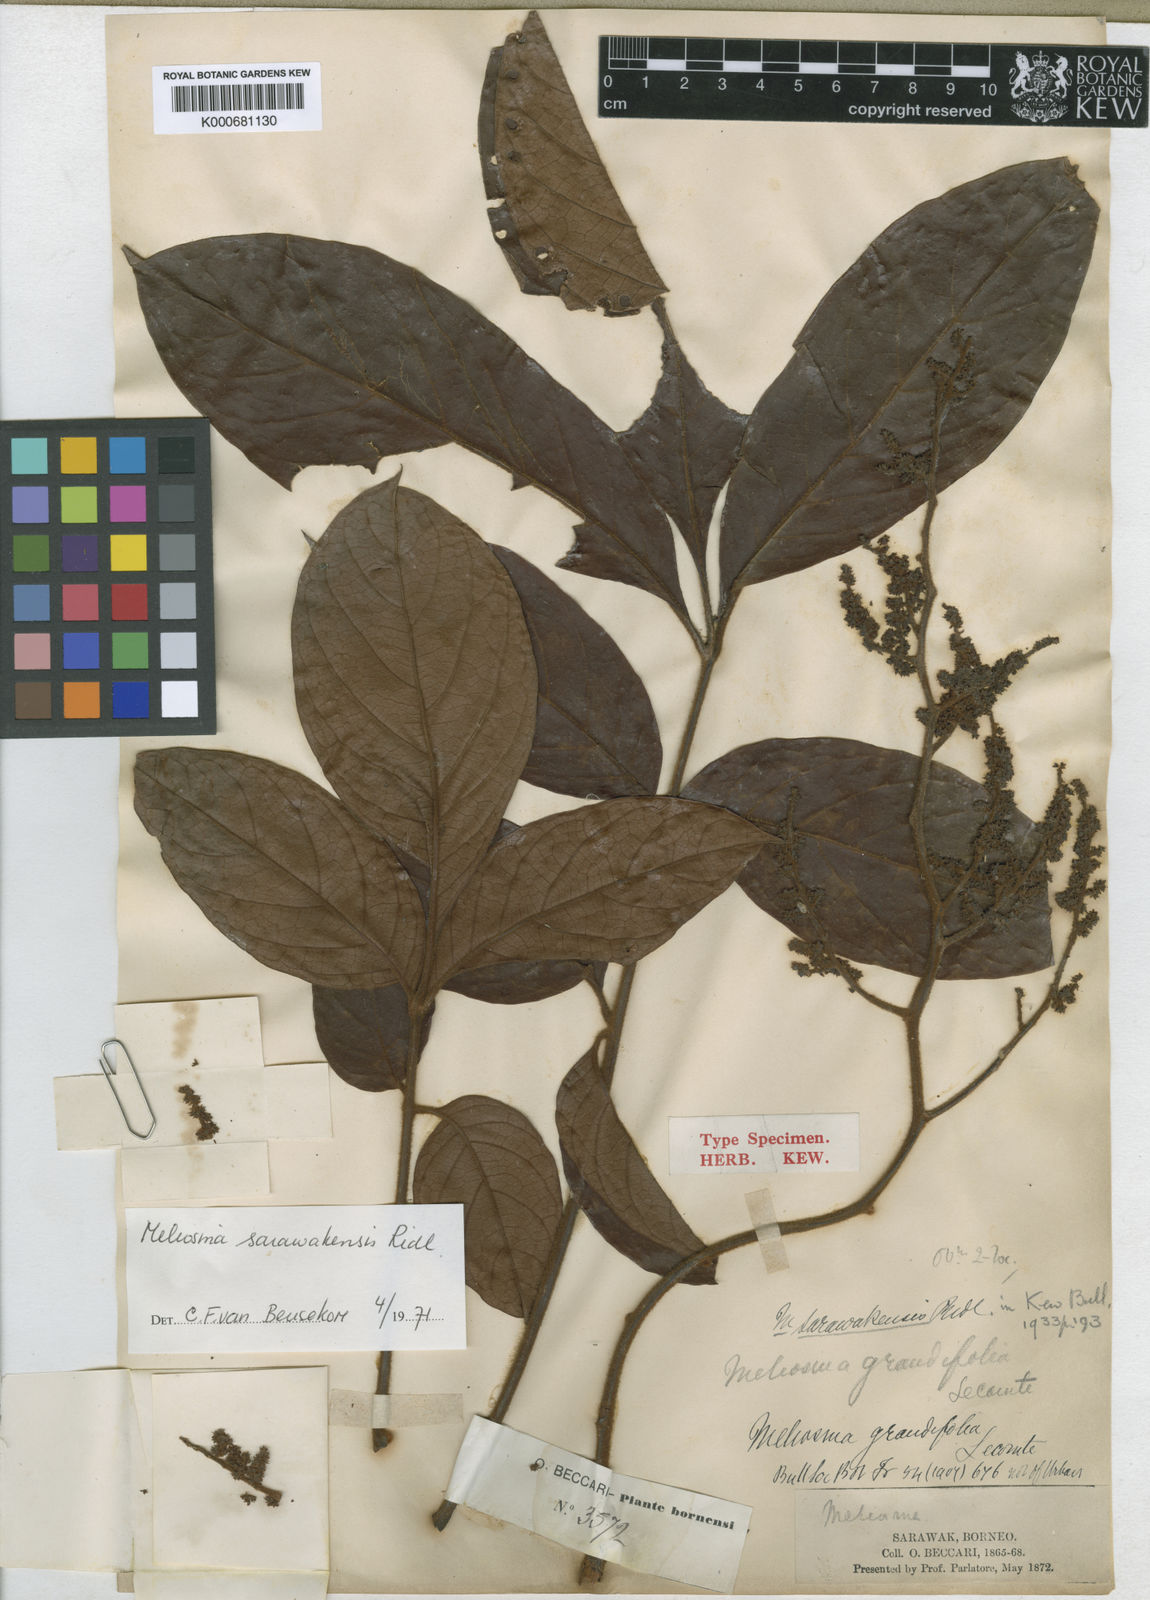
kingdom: Plantae
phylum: Tracheophyta
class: Magnoliopsida
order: Proteales
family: Sabiaceae
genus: Meliosma
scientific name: Meliosma sarawakensis
